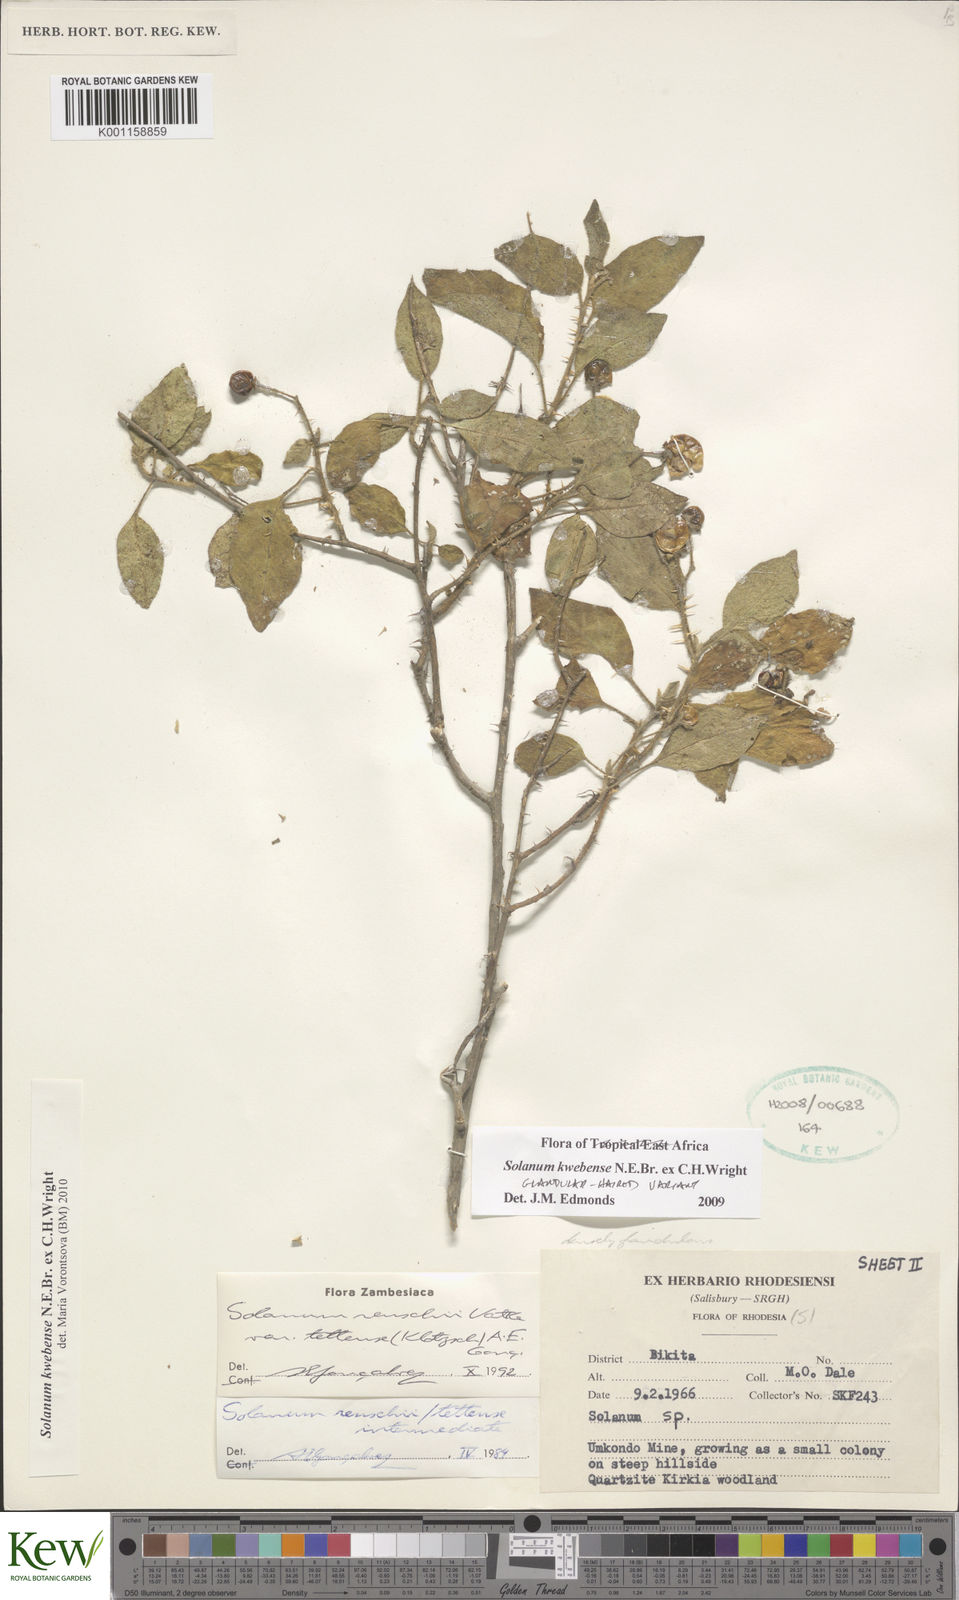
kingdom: Plantae
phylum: Tracheophyta
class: Magnoliopsida
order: Solanales
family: Solanaceae
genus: Solanum
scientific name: Solanum tettense
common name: Mozambique bitter apple
